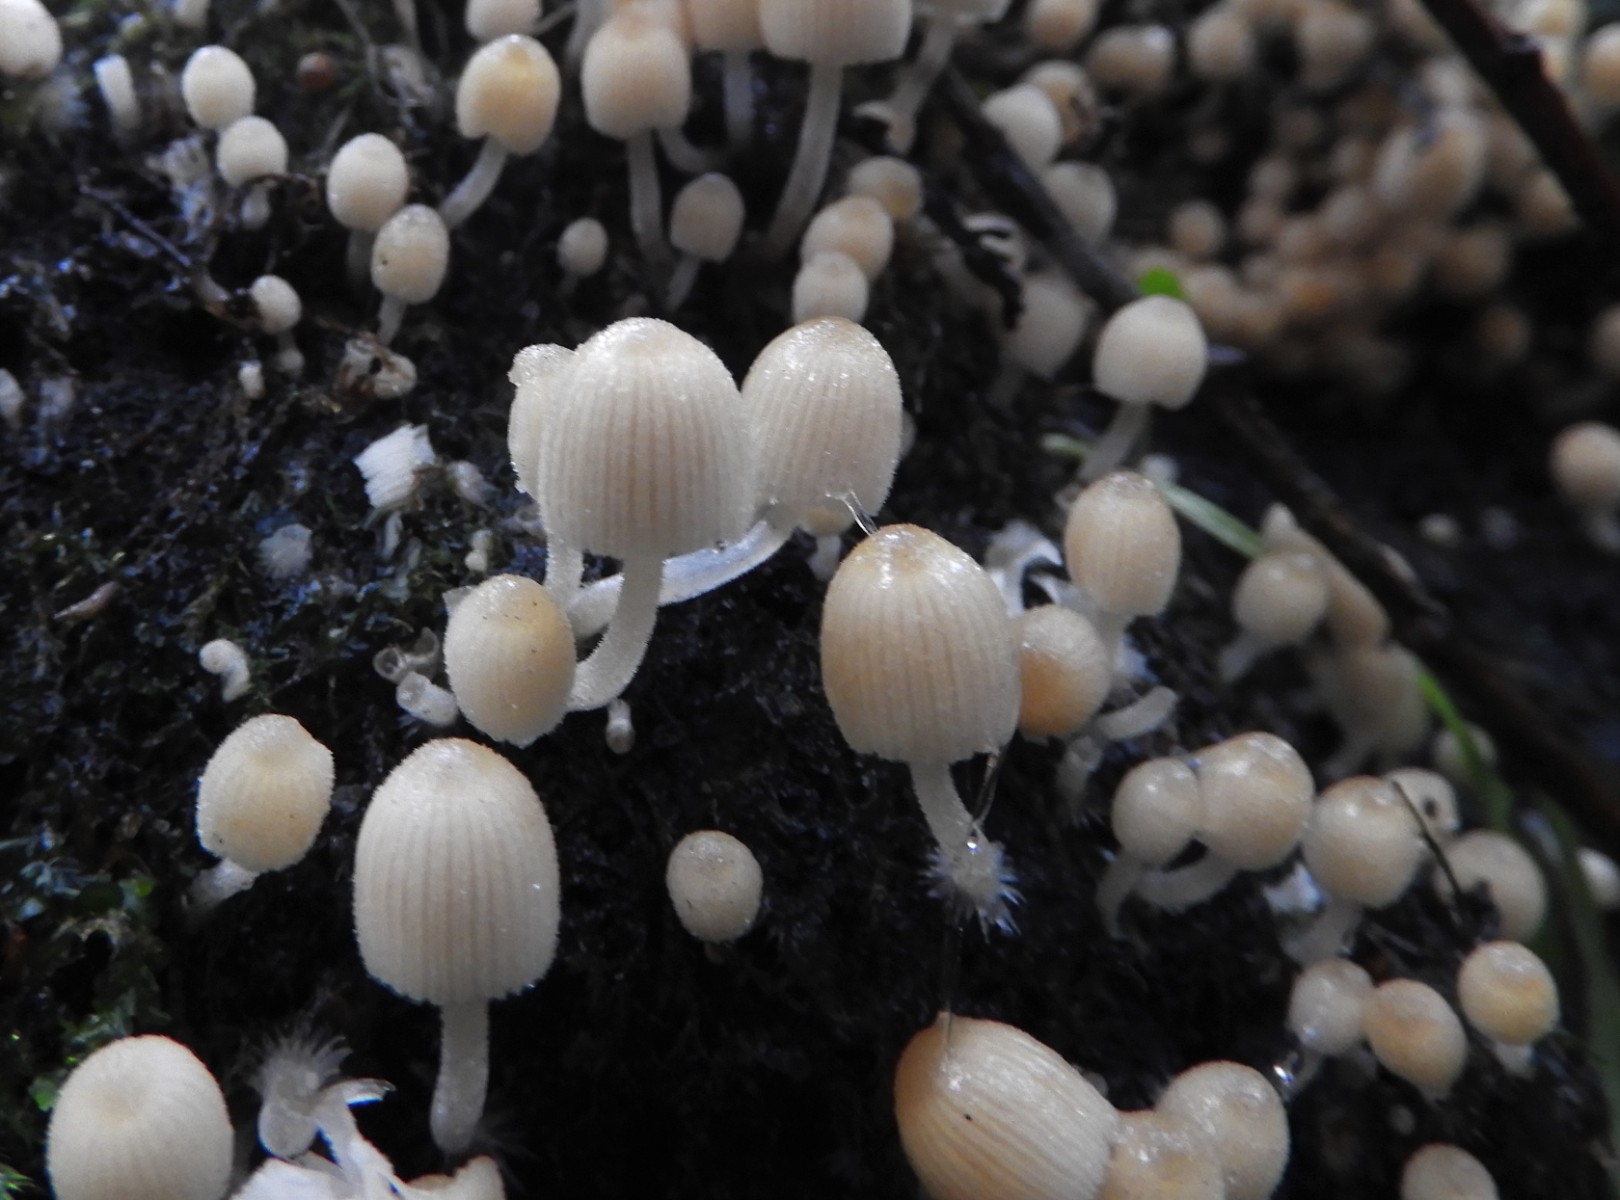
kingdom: Fungi
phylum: Basidiomycota
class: Agaricomycetes
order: Agaricales
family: Psathyrellaceae
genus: Coprinellus
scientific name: Coprinellus disseminatus
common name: bredsået blækhat
